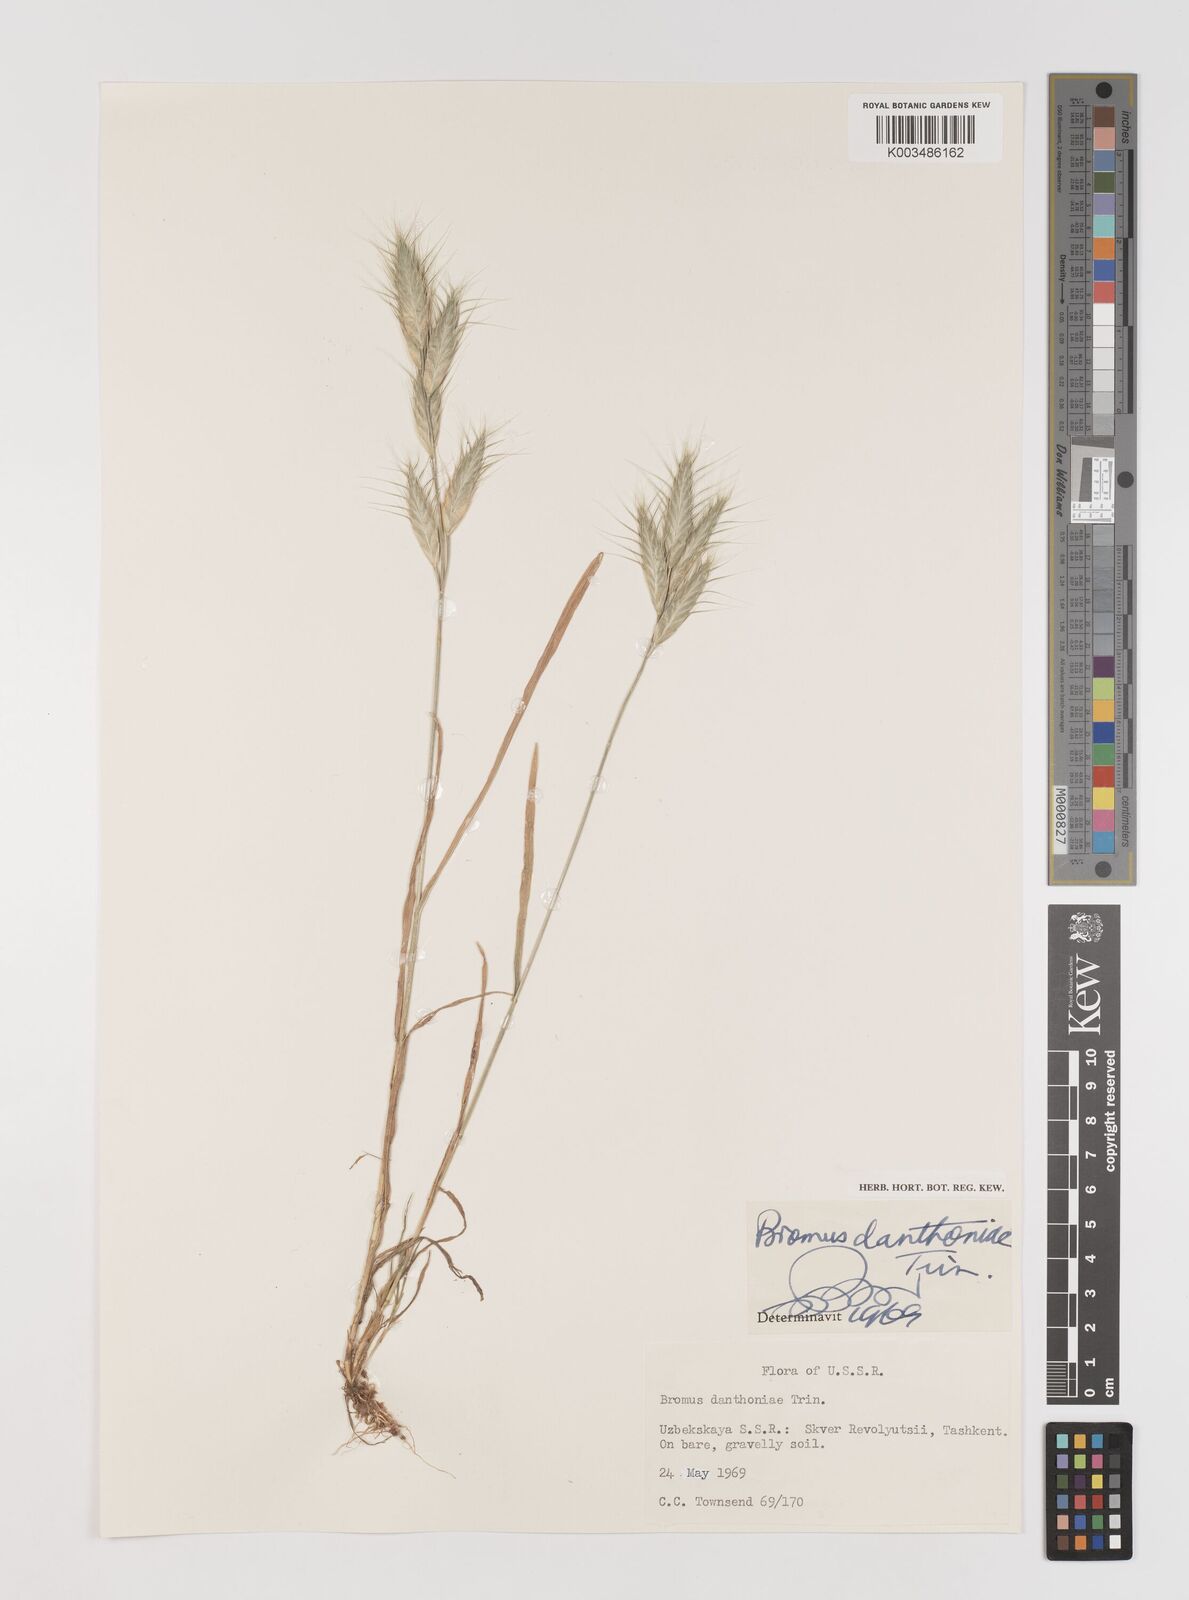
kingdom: Plantae
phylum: Tracheophyta
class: Liliopsida
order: Poales
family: Poaceae
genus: Bromus
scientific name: Bromus danthoniae
